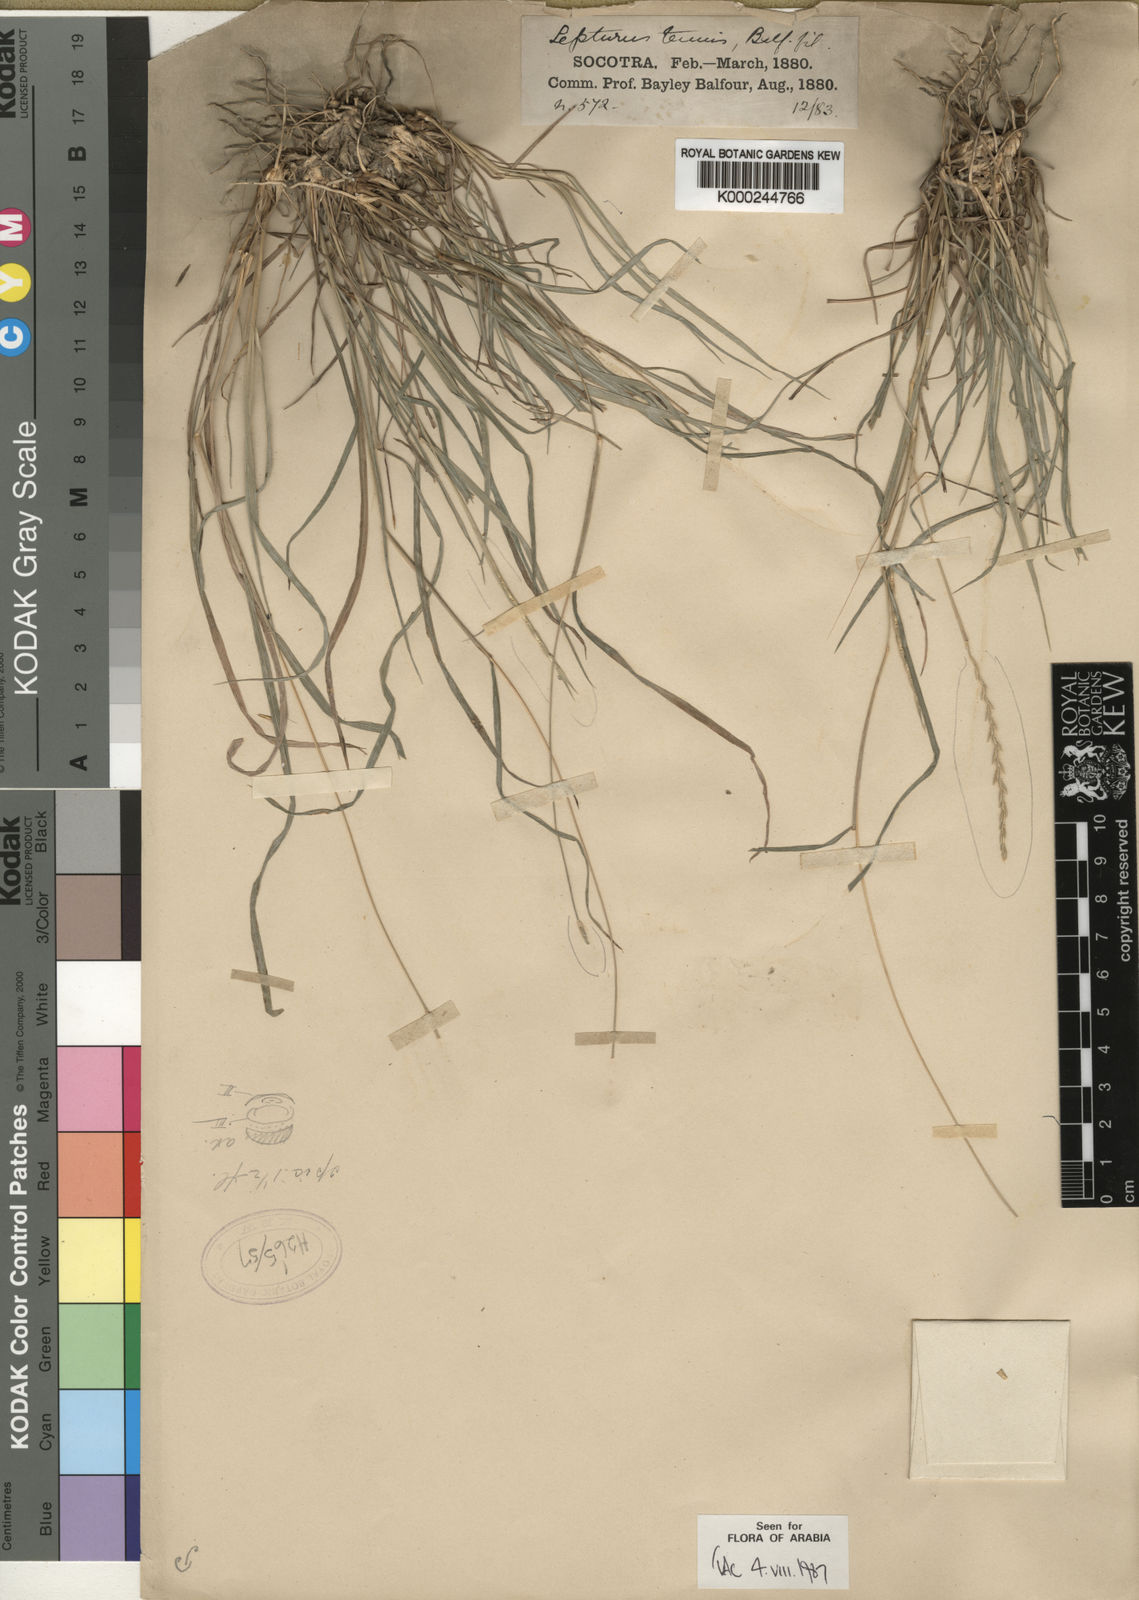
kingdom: Plantae
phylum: Tracheophyta
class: Liliopsida
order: Poales
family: Poaceae
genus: Lepturus
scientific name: Lepturus tenuis
